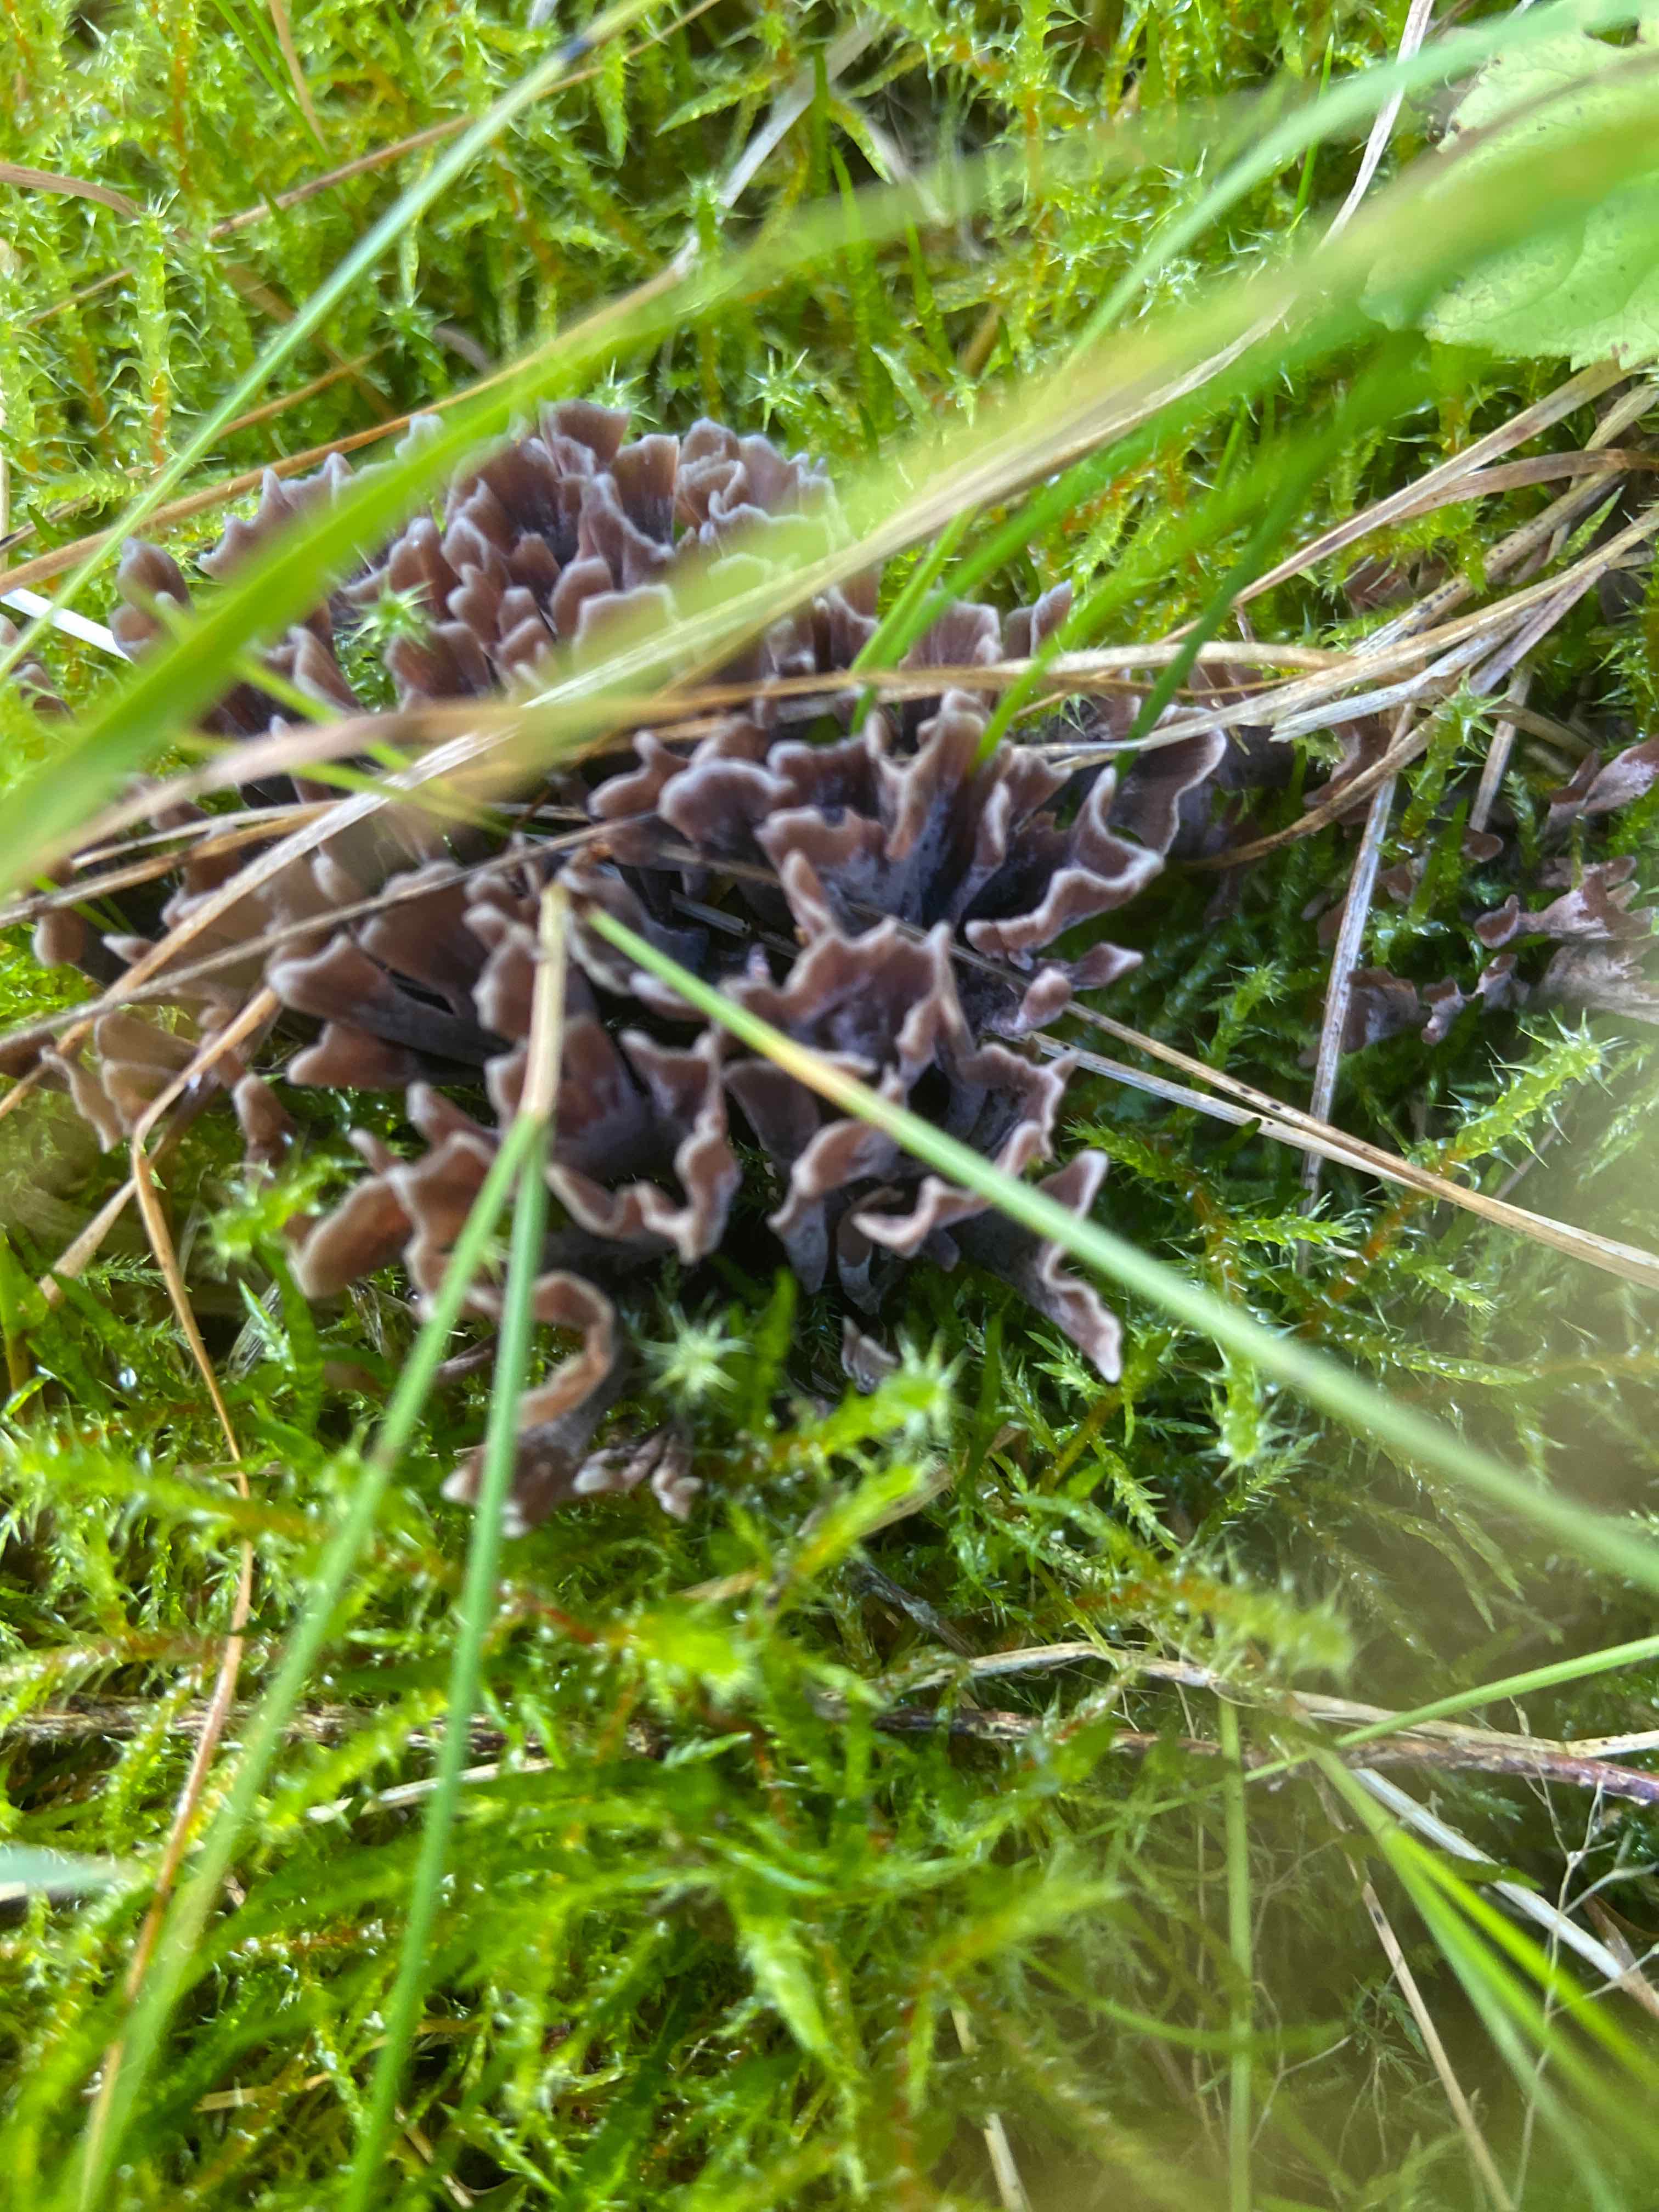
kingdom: Fungi
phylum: Basidiomycota
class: Agaricomycetes
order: Thelephorales
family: Thelephoraceae
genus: Thelephora
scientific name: Thelephora palmata
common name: grenet frynsesvamp
